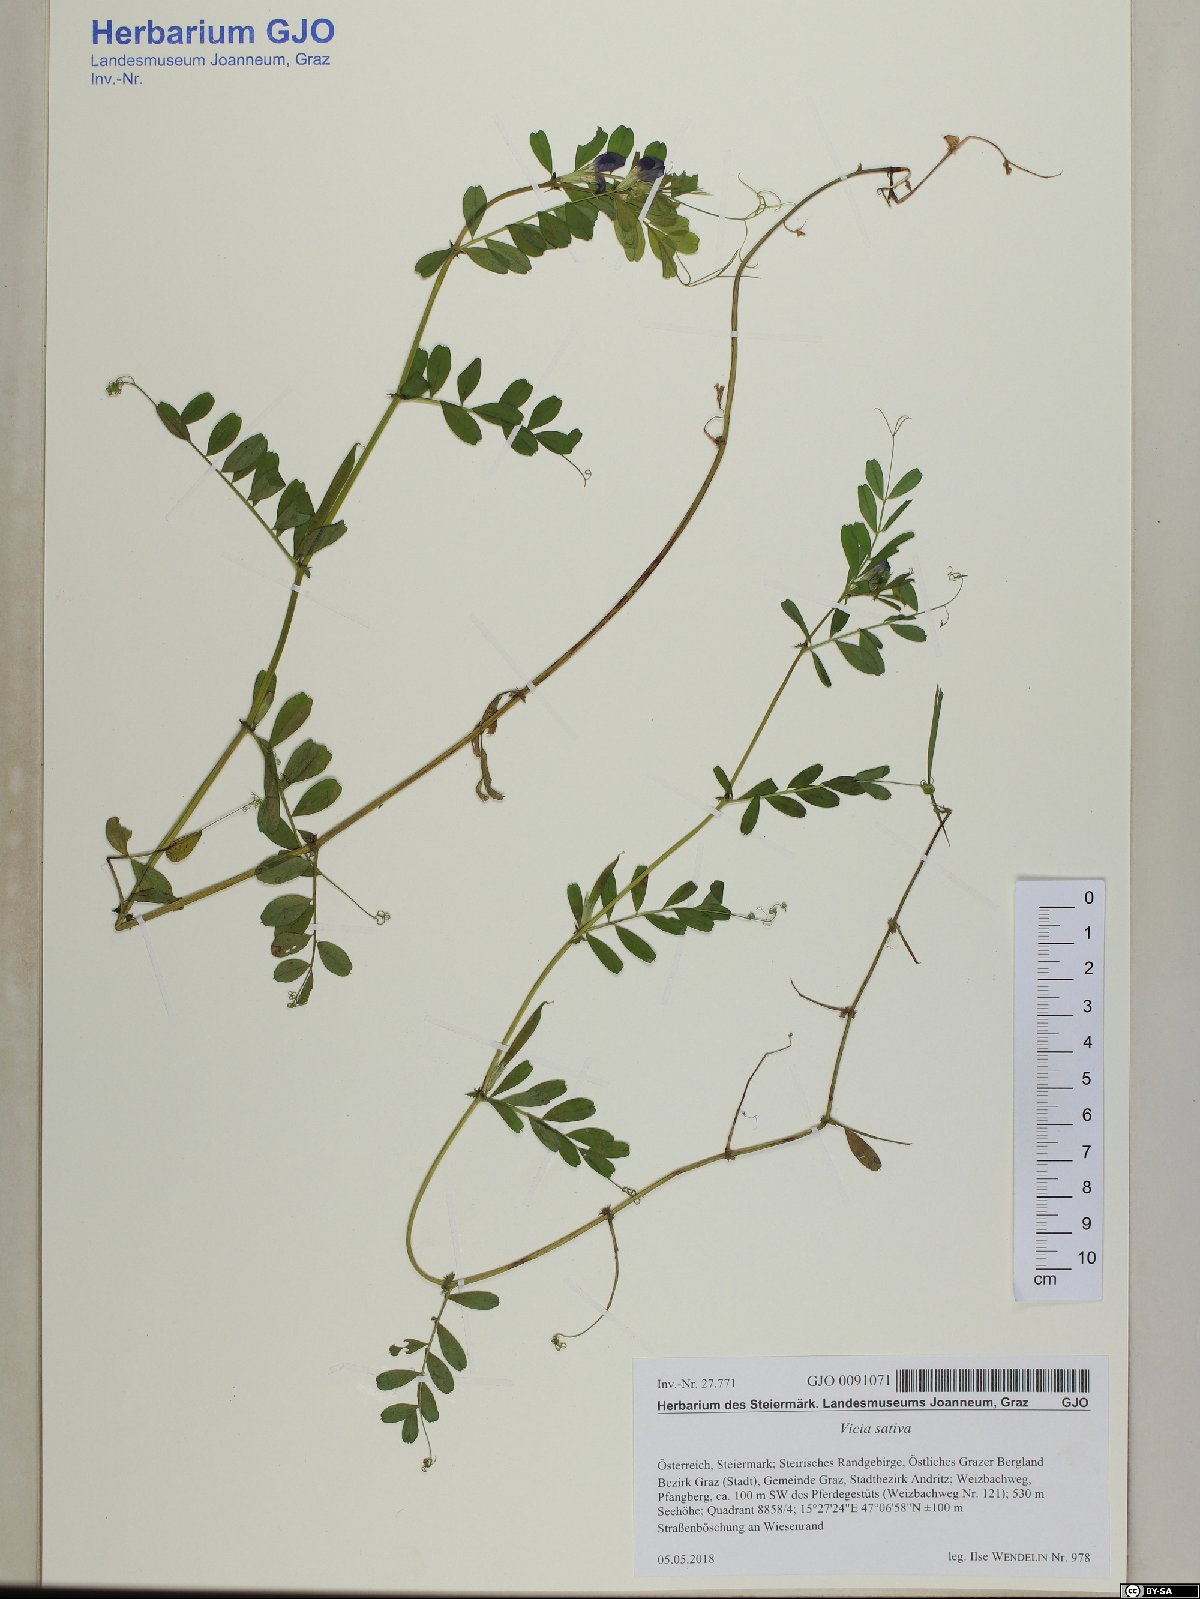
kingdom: Plantae
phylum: Tracheophyta
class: Magnoliopsida
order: Fabales
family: Fabaceae
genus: Vicia
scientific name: Vicia sativa
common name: Garden vetch
